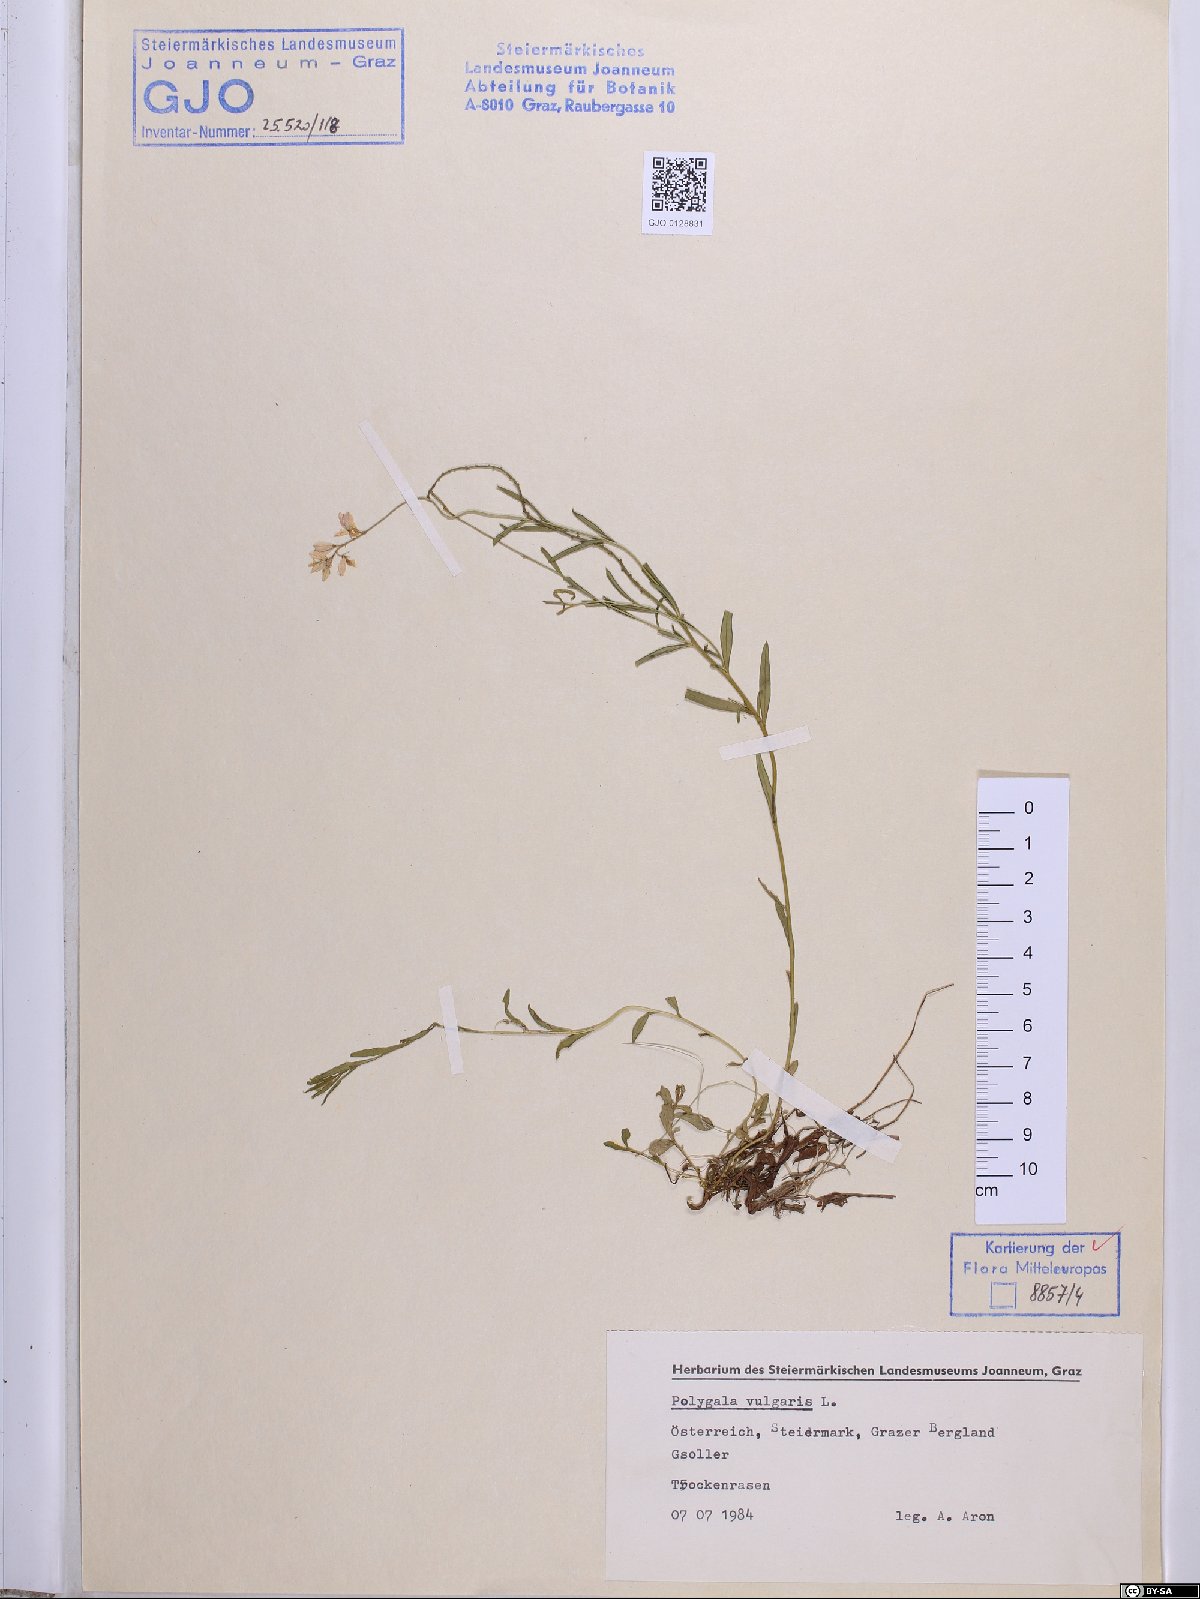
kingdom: Plantae
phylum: Tracheophyta
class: Magnoliopsida
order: Fabales
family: Polygalaceae
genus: Polygala
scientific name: Polygala vulgaris
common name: Common milkwort
